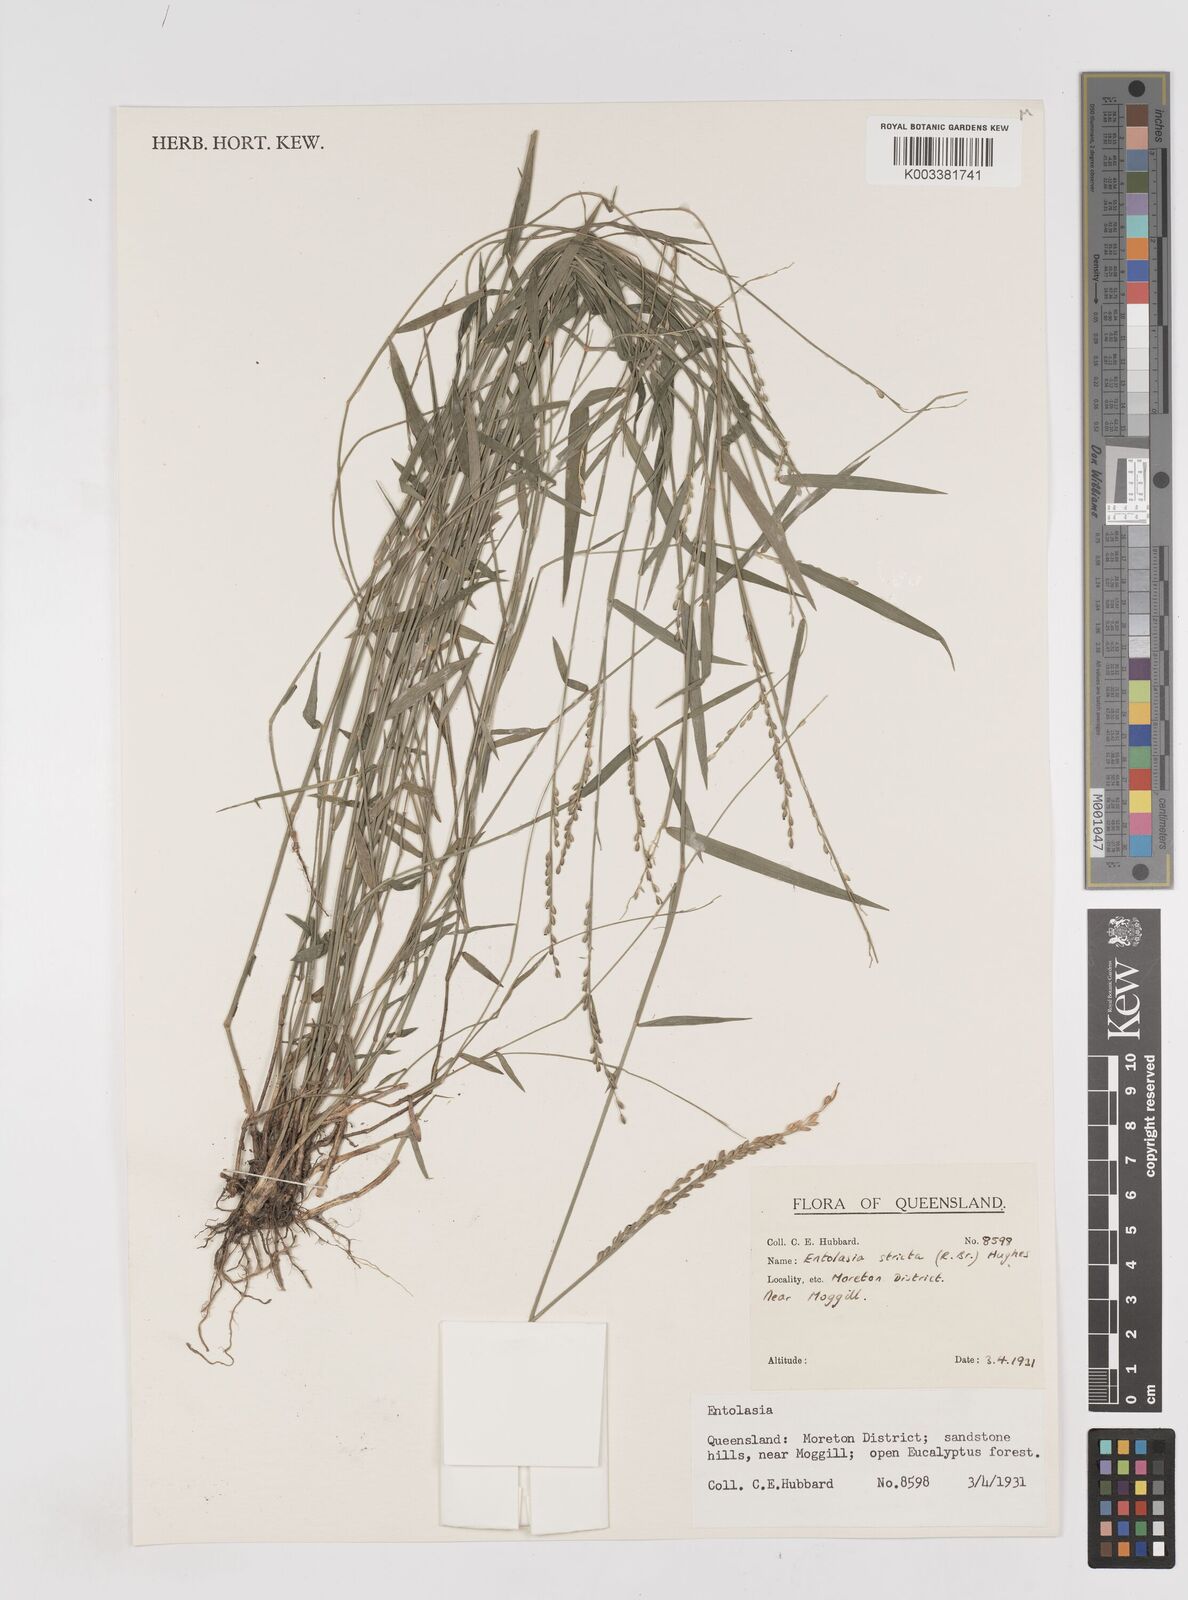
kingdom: Plantae
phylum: Tracheophyta
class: Liliopsida
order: Poales
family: Poaceae
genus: Entolasia
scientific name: Entolasia stricta
